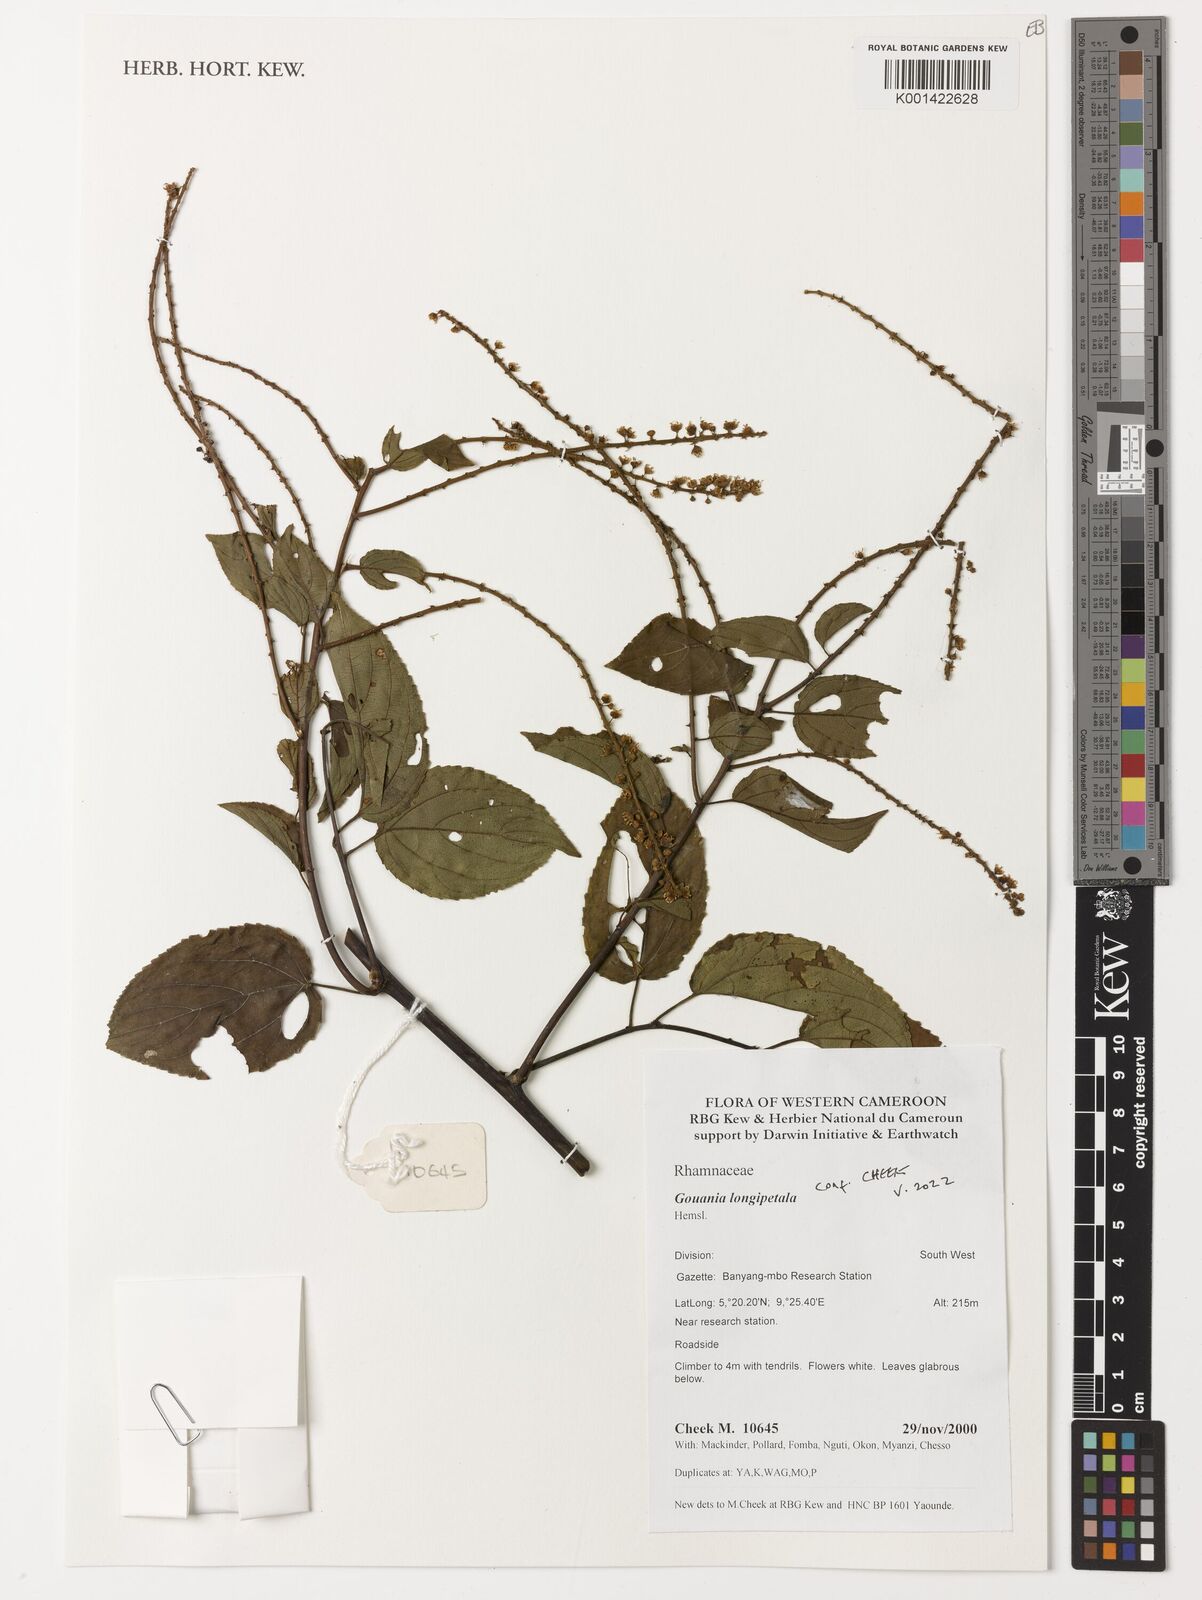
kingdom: Plantae
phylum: Tracheophyta
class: Magnoliopsida
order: Rosales
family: Rhamnaceae
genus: Gouania
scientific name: Gouania longipetala
